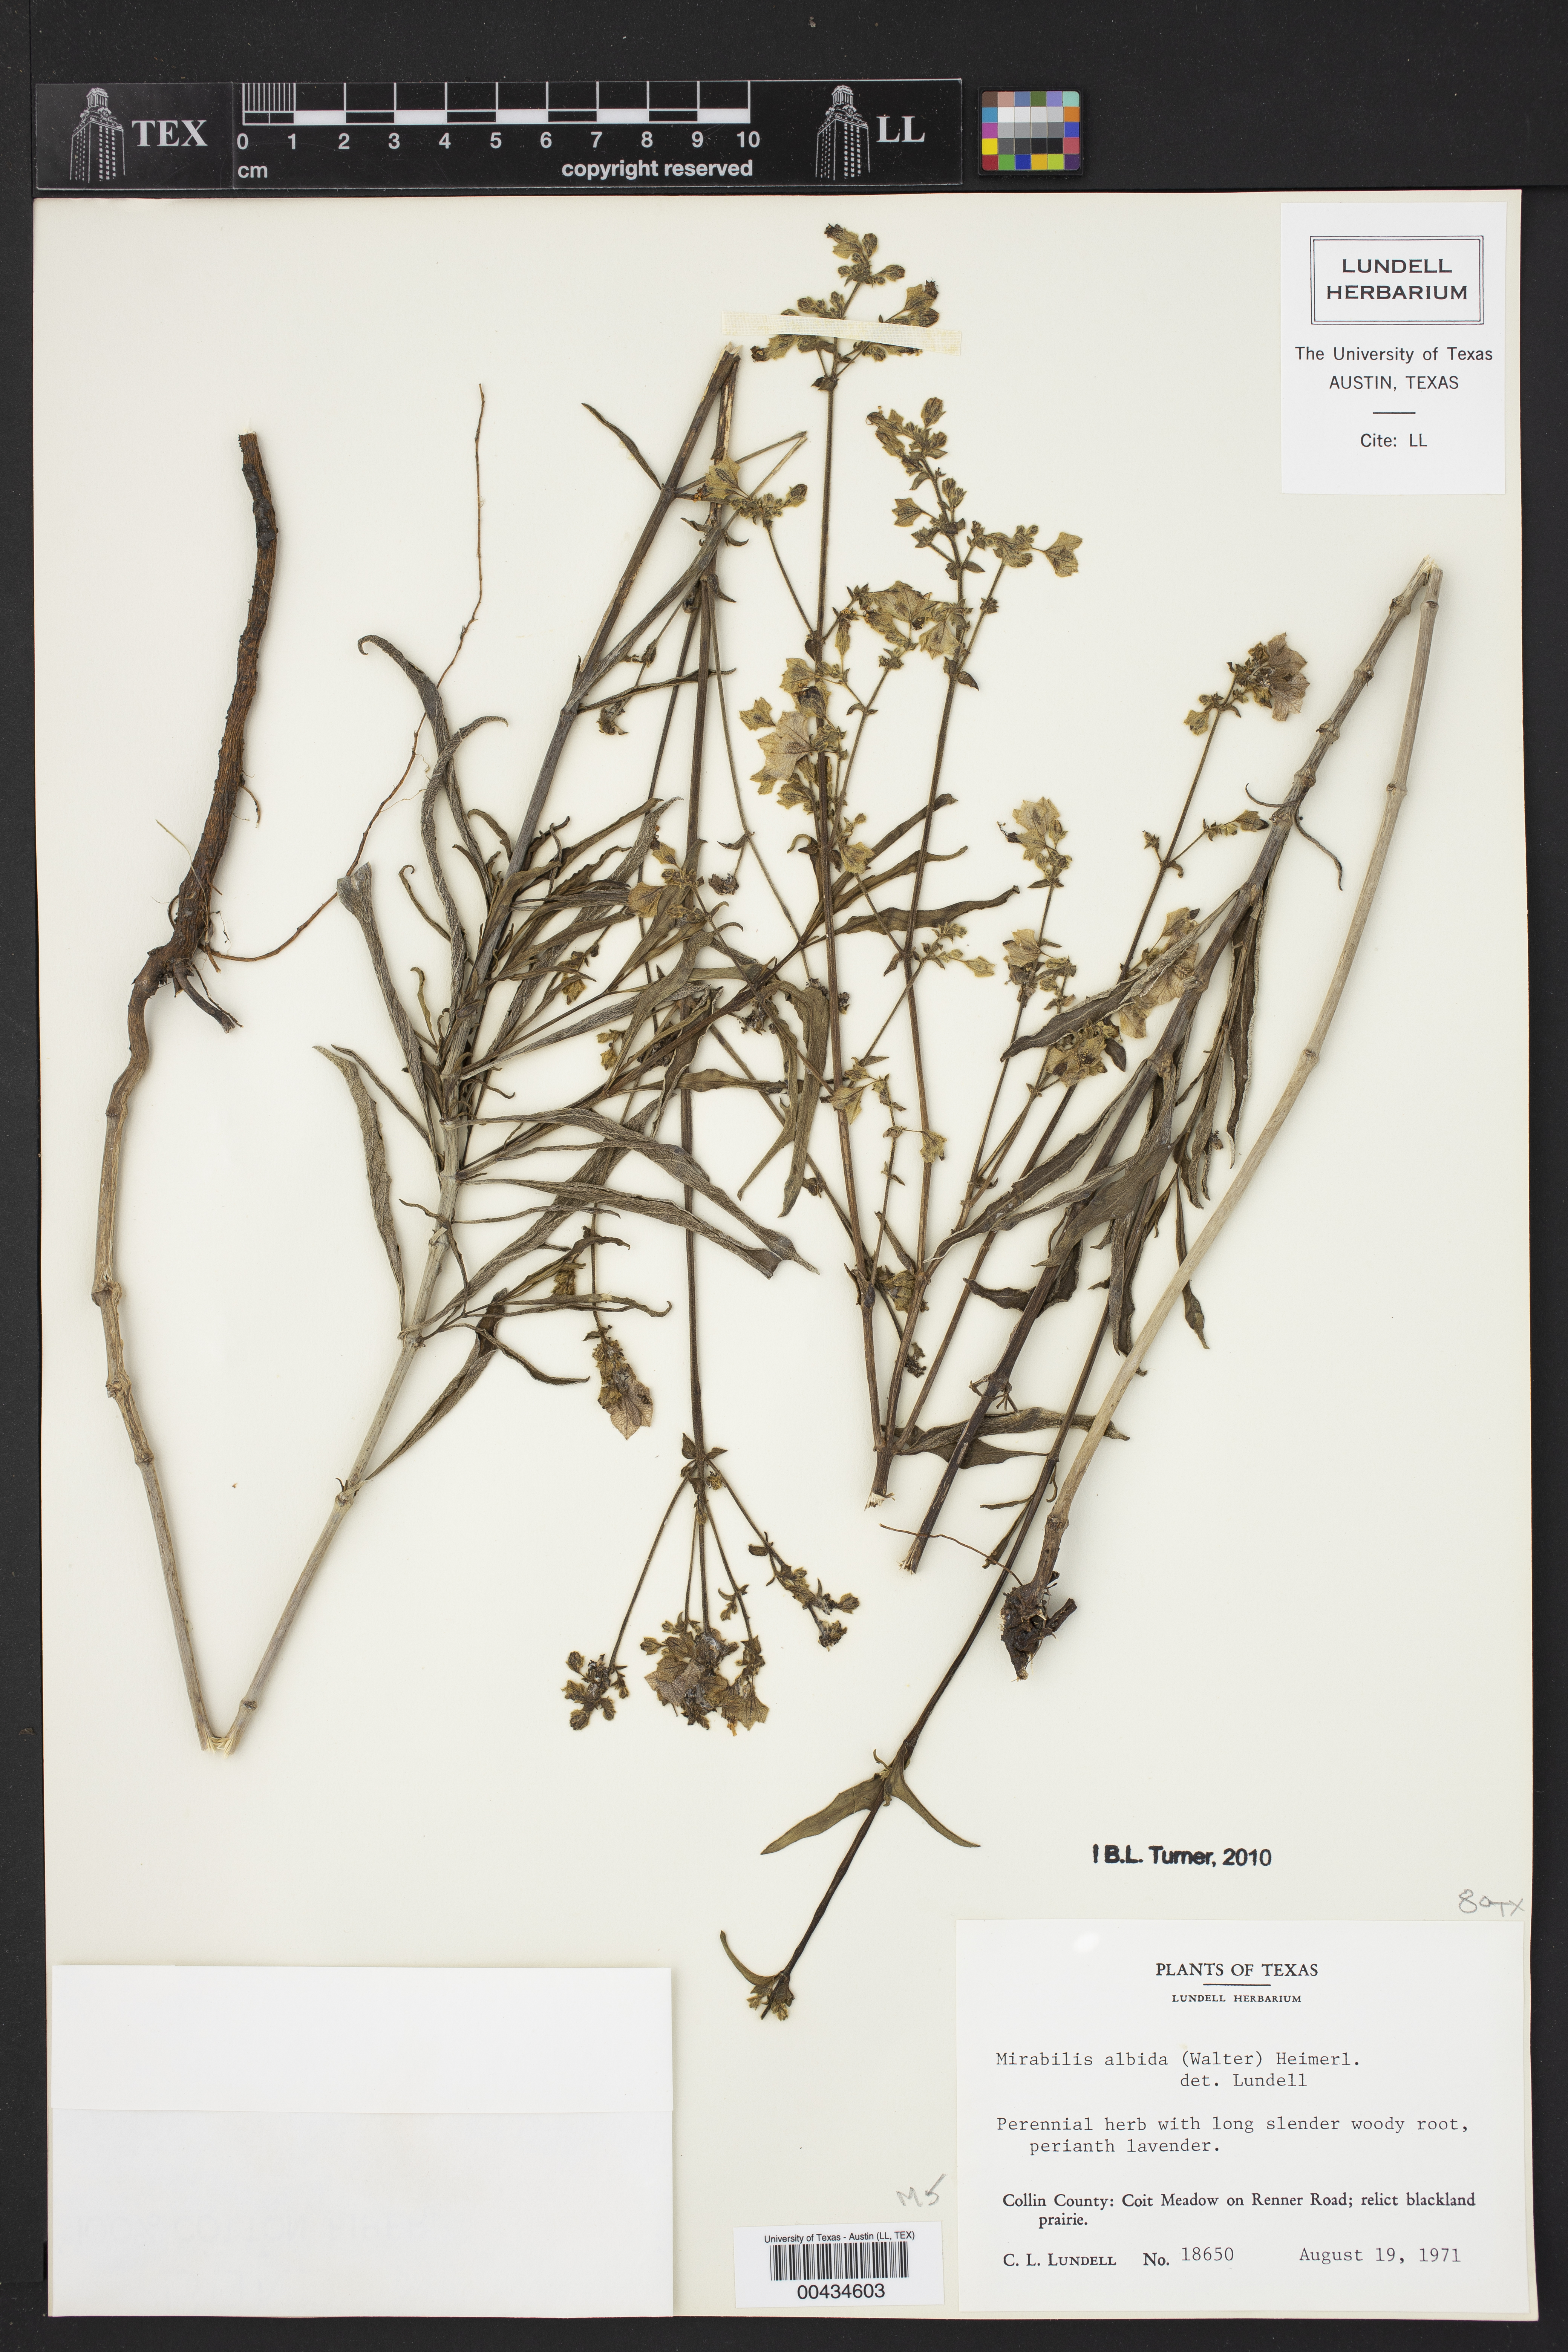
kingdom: Plantae
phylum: Tracheophyta
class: Magnoliopsida
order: Caryophyllales
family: Nyctaginaceae
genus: Mirabilis
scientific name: Mirabilis albida
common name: Hairy four-o'clock
